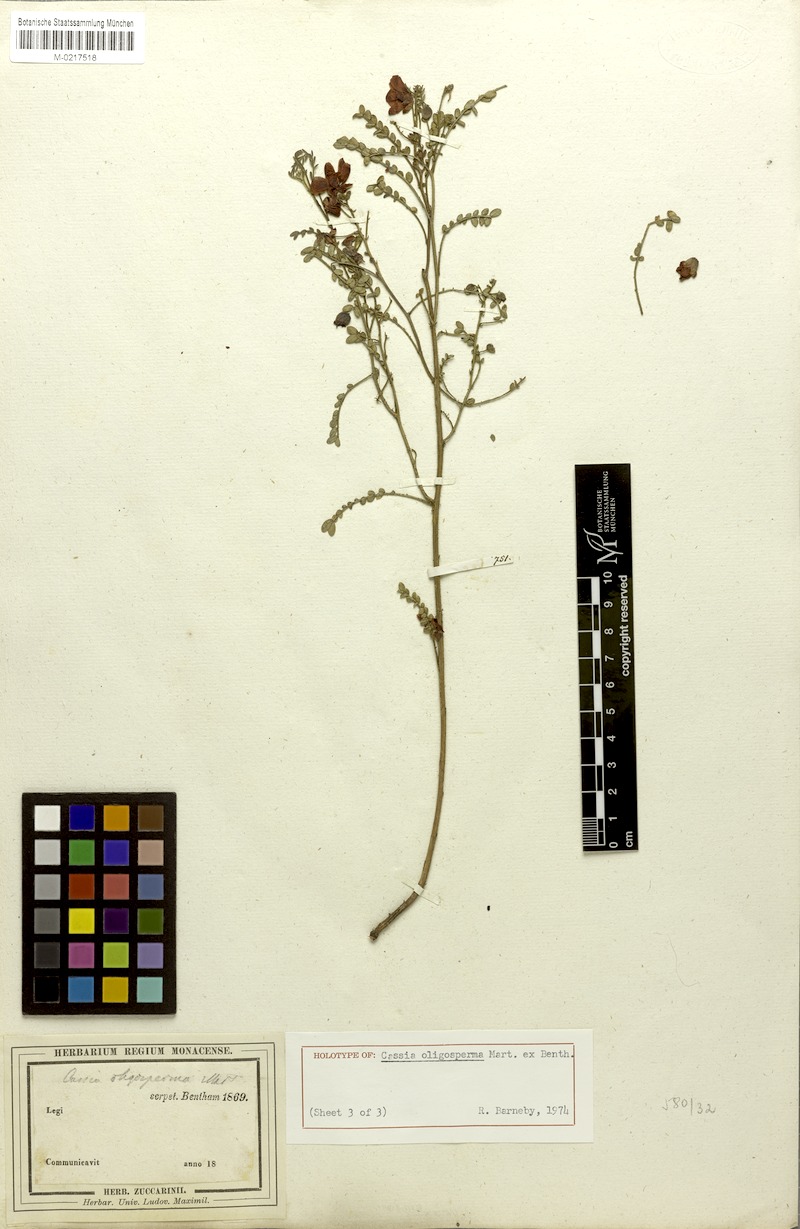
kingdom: Plantae
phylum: Tracheophyta
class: Magnoliopsida
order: Fabales
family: Fabaceae
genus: Chamaecrista
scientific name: Chamaecrista oligosperma
